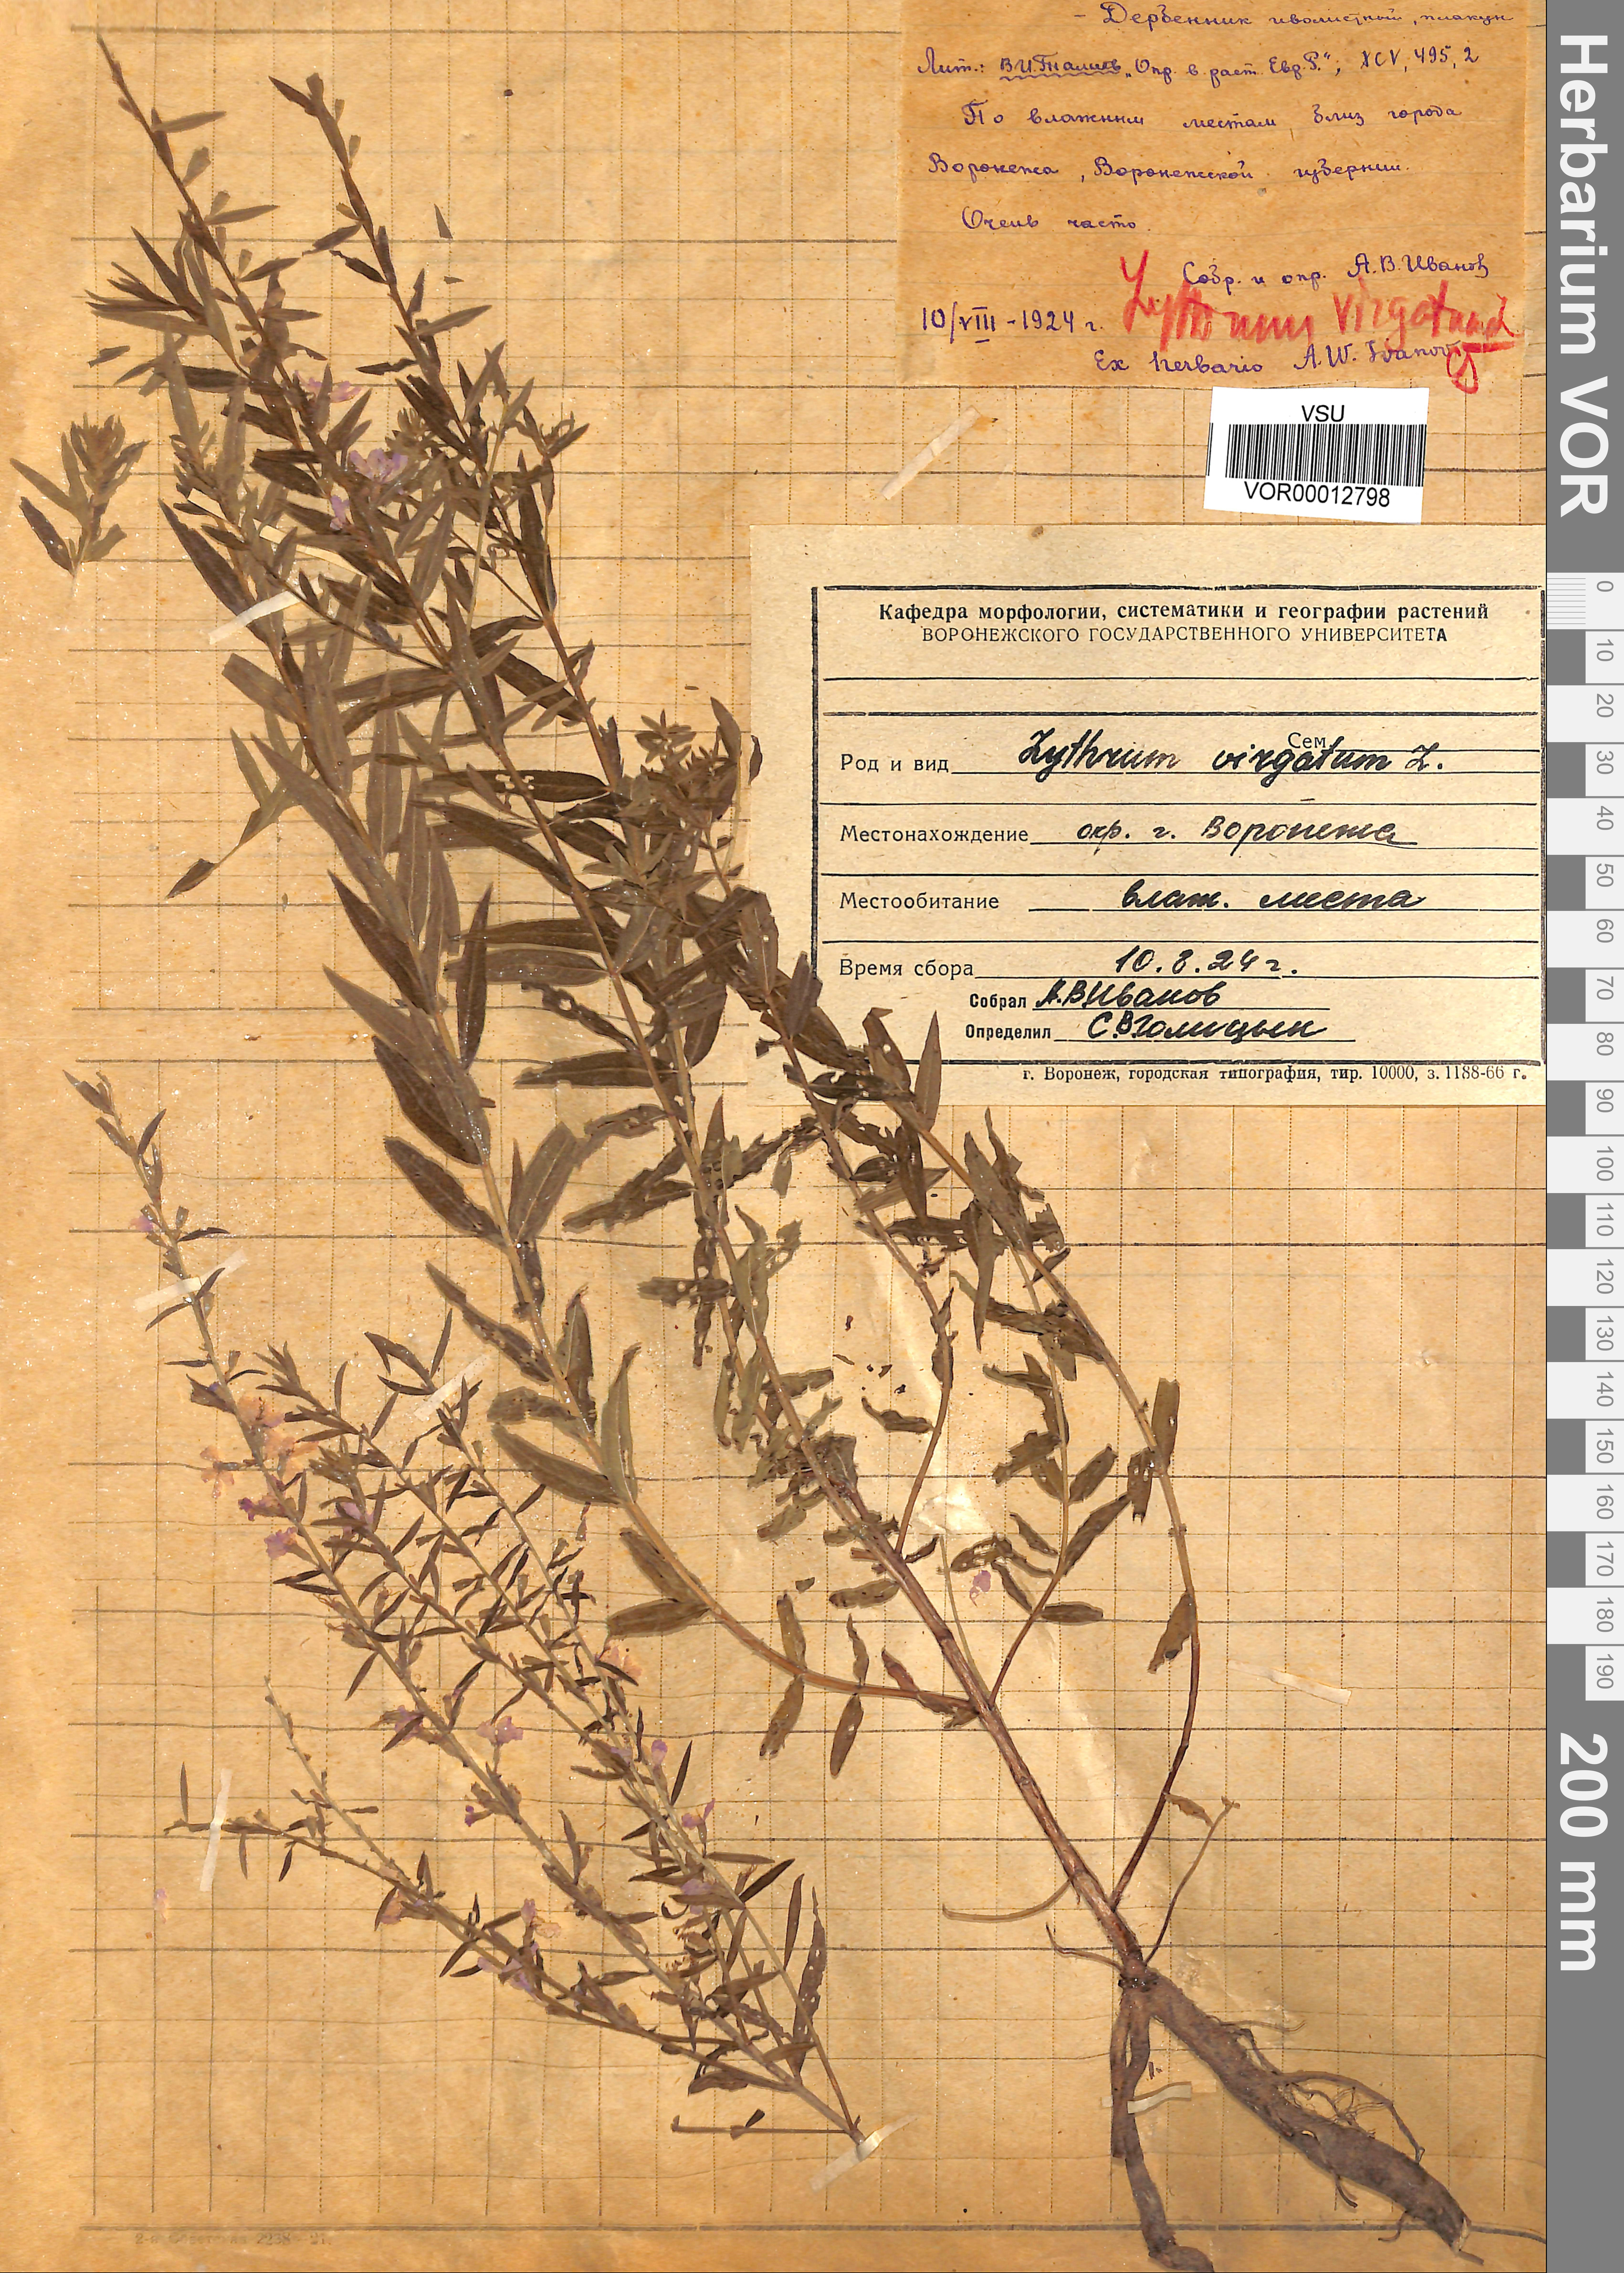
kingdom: Plantae
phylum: Tracheophyta
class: Magnoliopsida
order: Myrtales
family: Lythraceae
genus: Lythrum
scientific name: Lythrum virgatum
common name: European wand loosestrife
